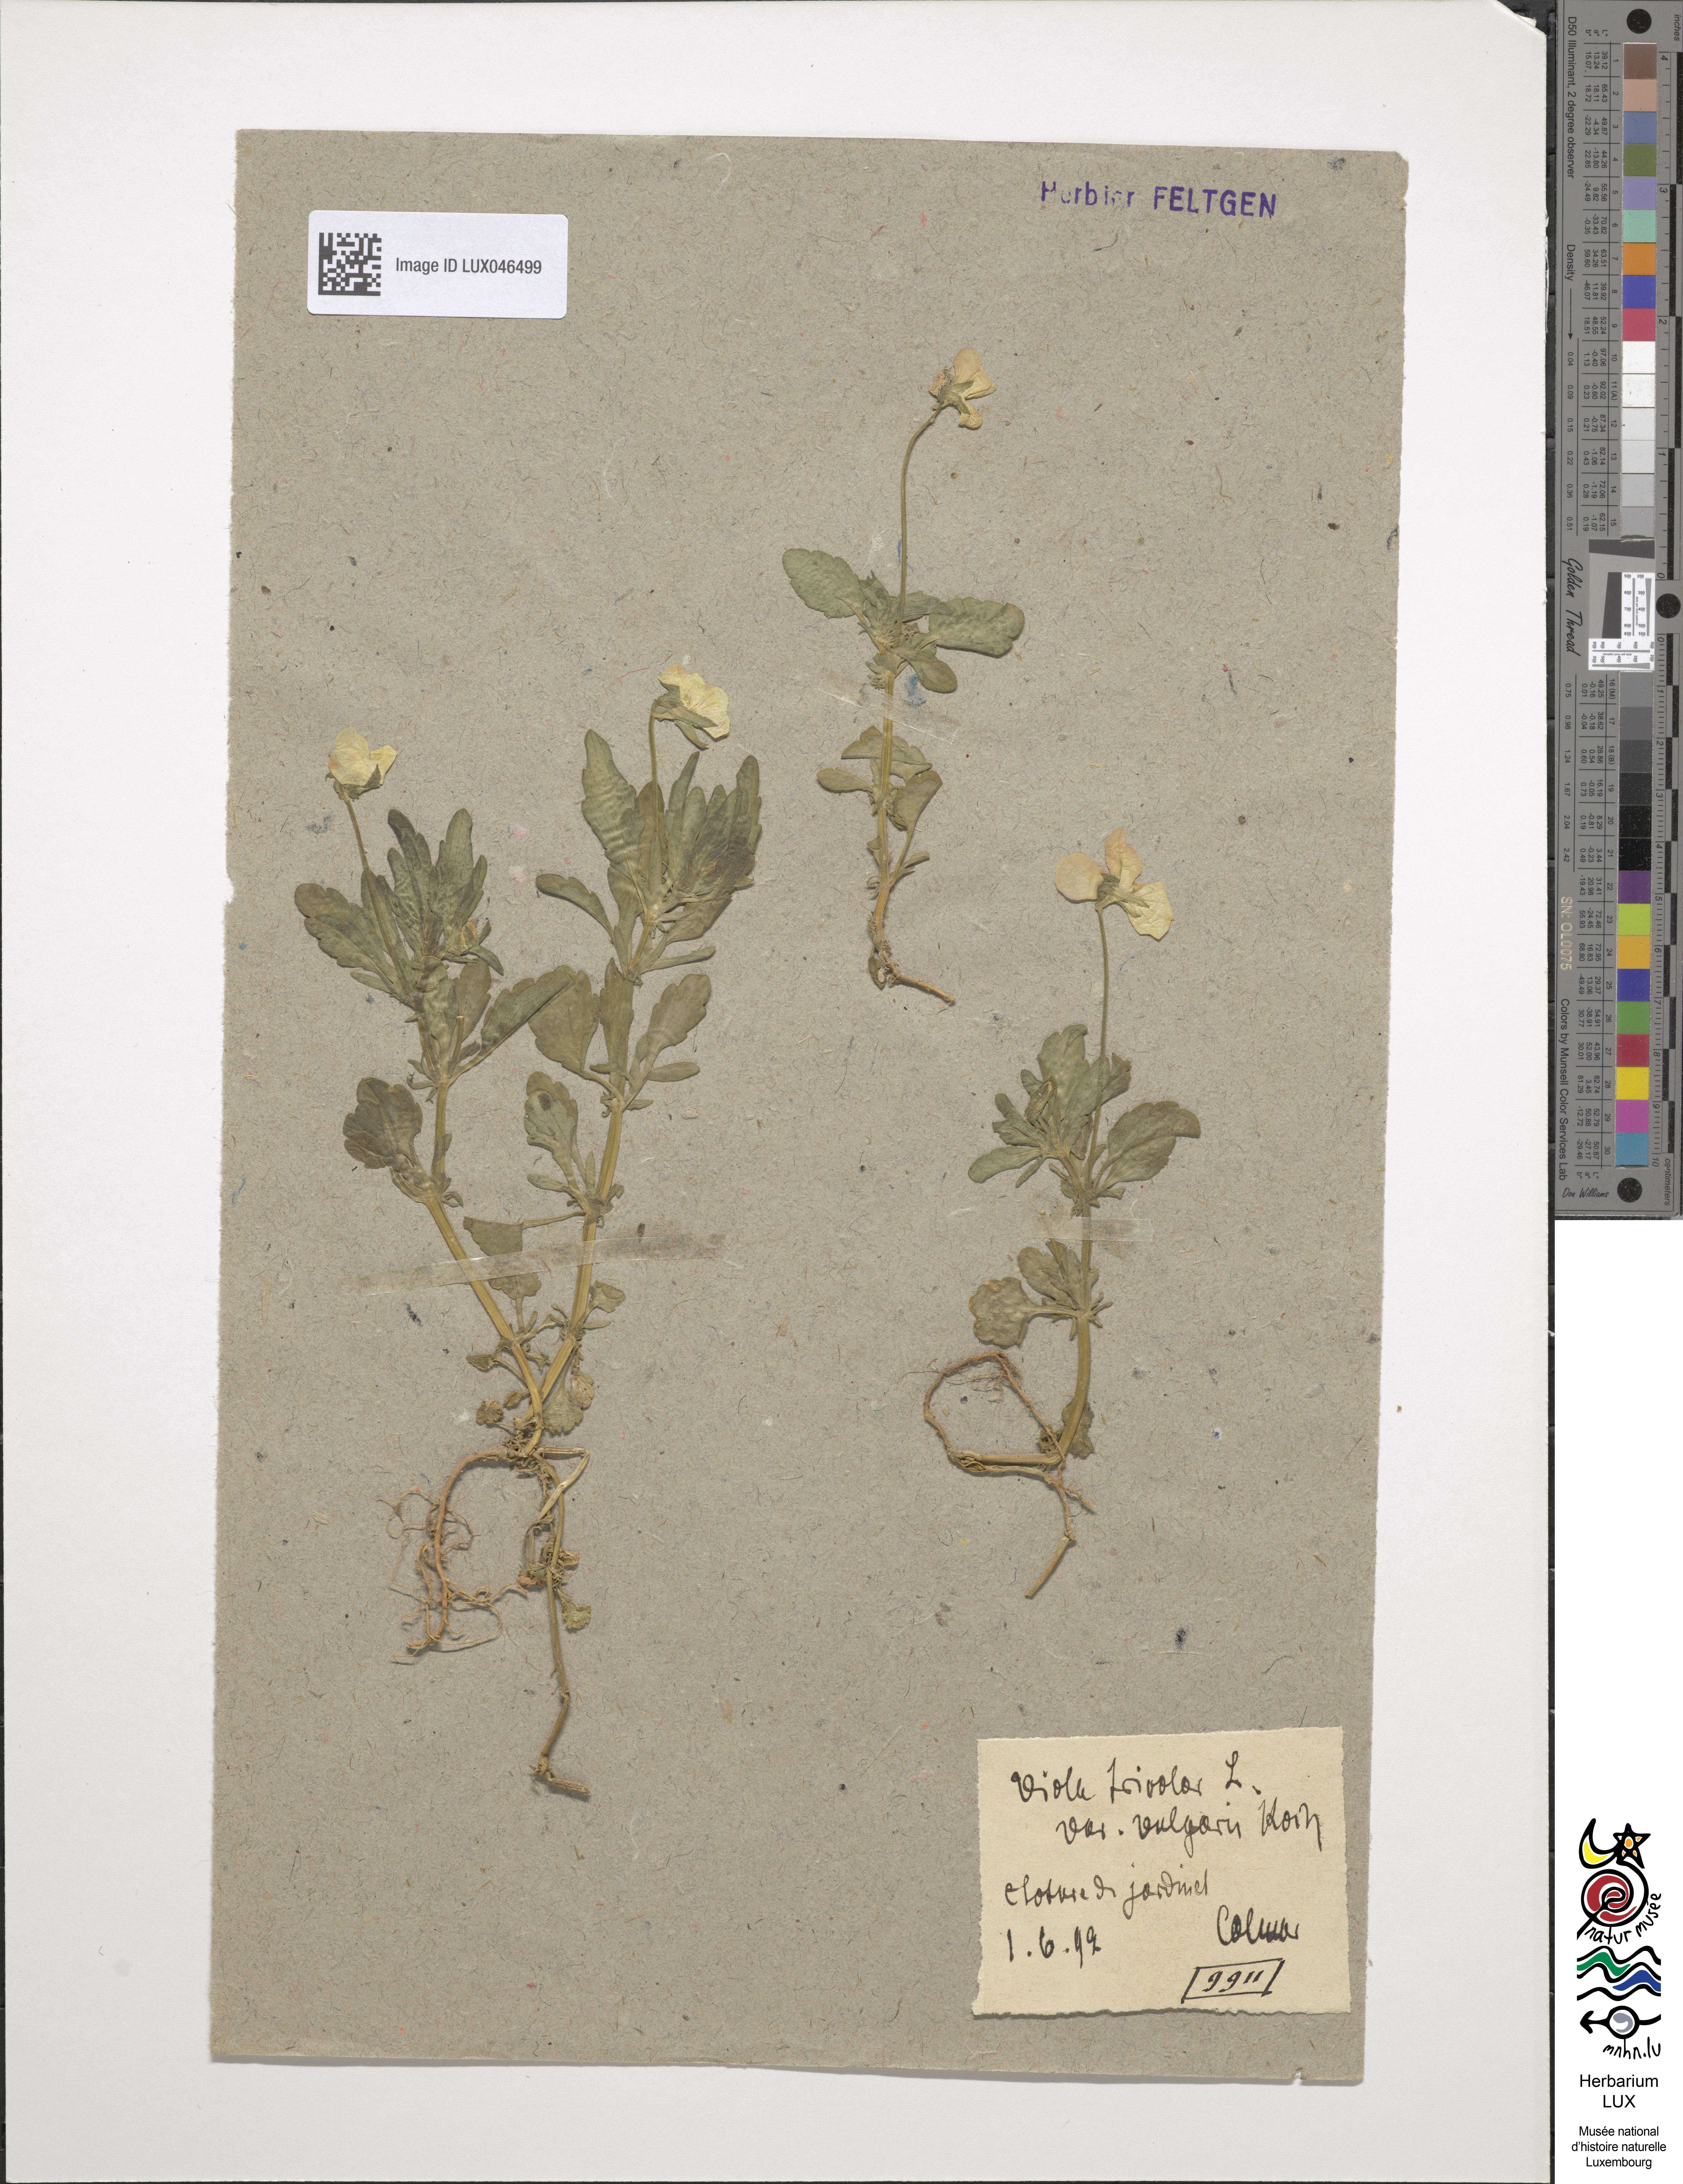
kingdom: Plantae
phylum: Tracheophyta
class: Magnoliopsida
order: Malpighiales
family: Violaceae
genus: Viola
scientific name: Viola tricolor
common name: Pansy
